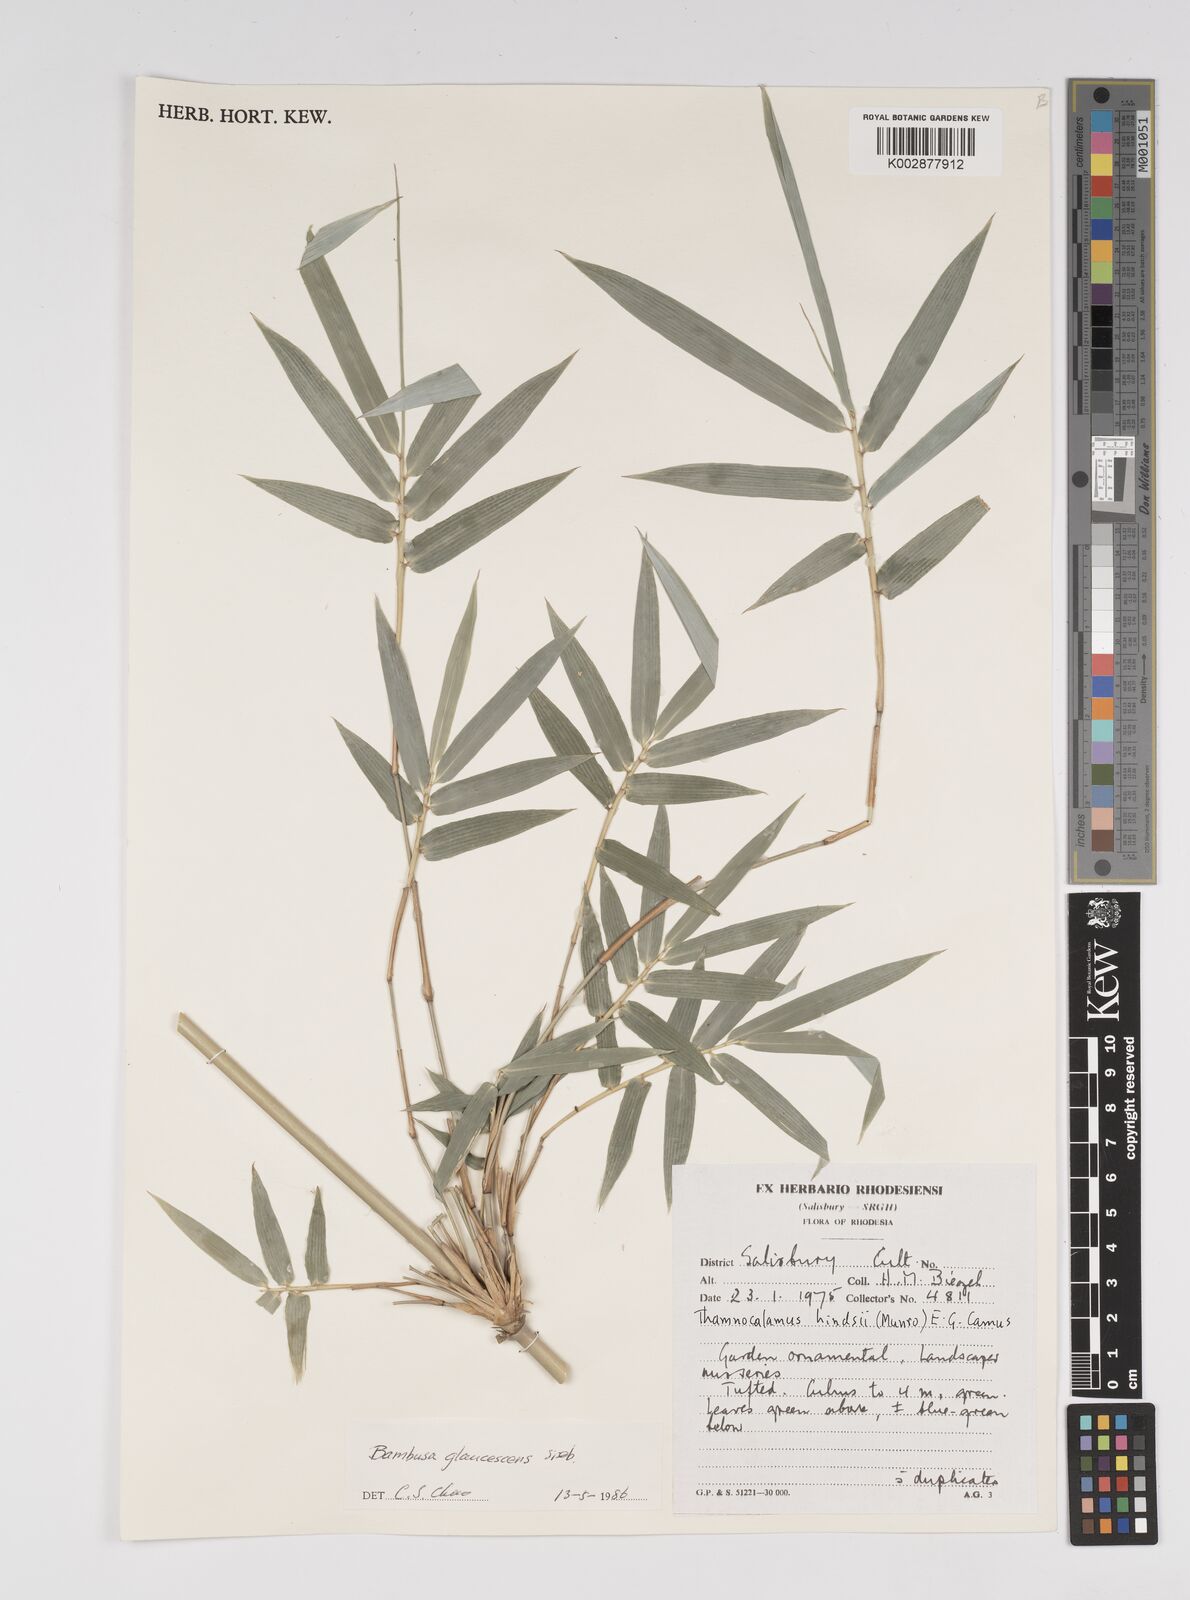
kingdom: Plantae
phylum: Tracheophyta
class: Liliopsida
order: Poales
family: Poaceae
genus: Bambusa
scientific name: Bambusa multiplex
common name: Hedge bamboo
